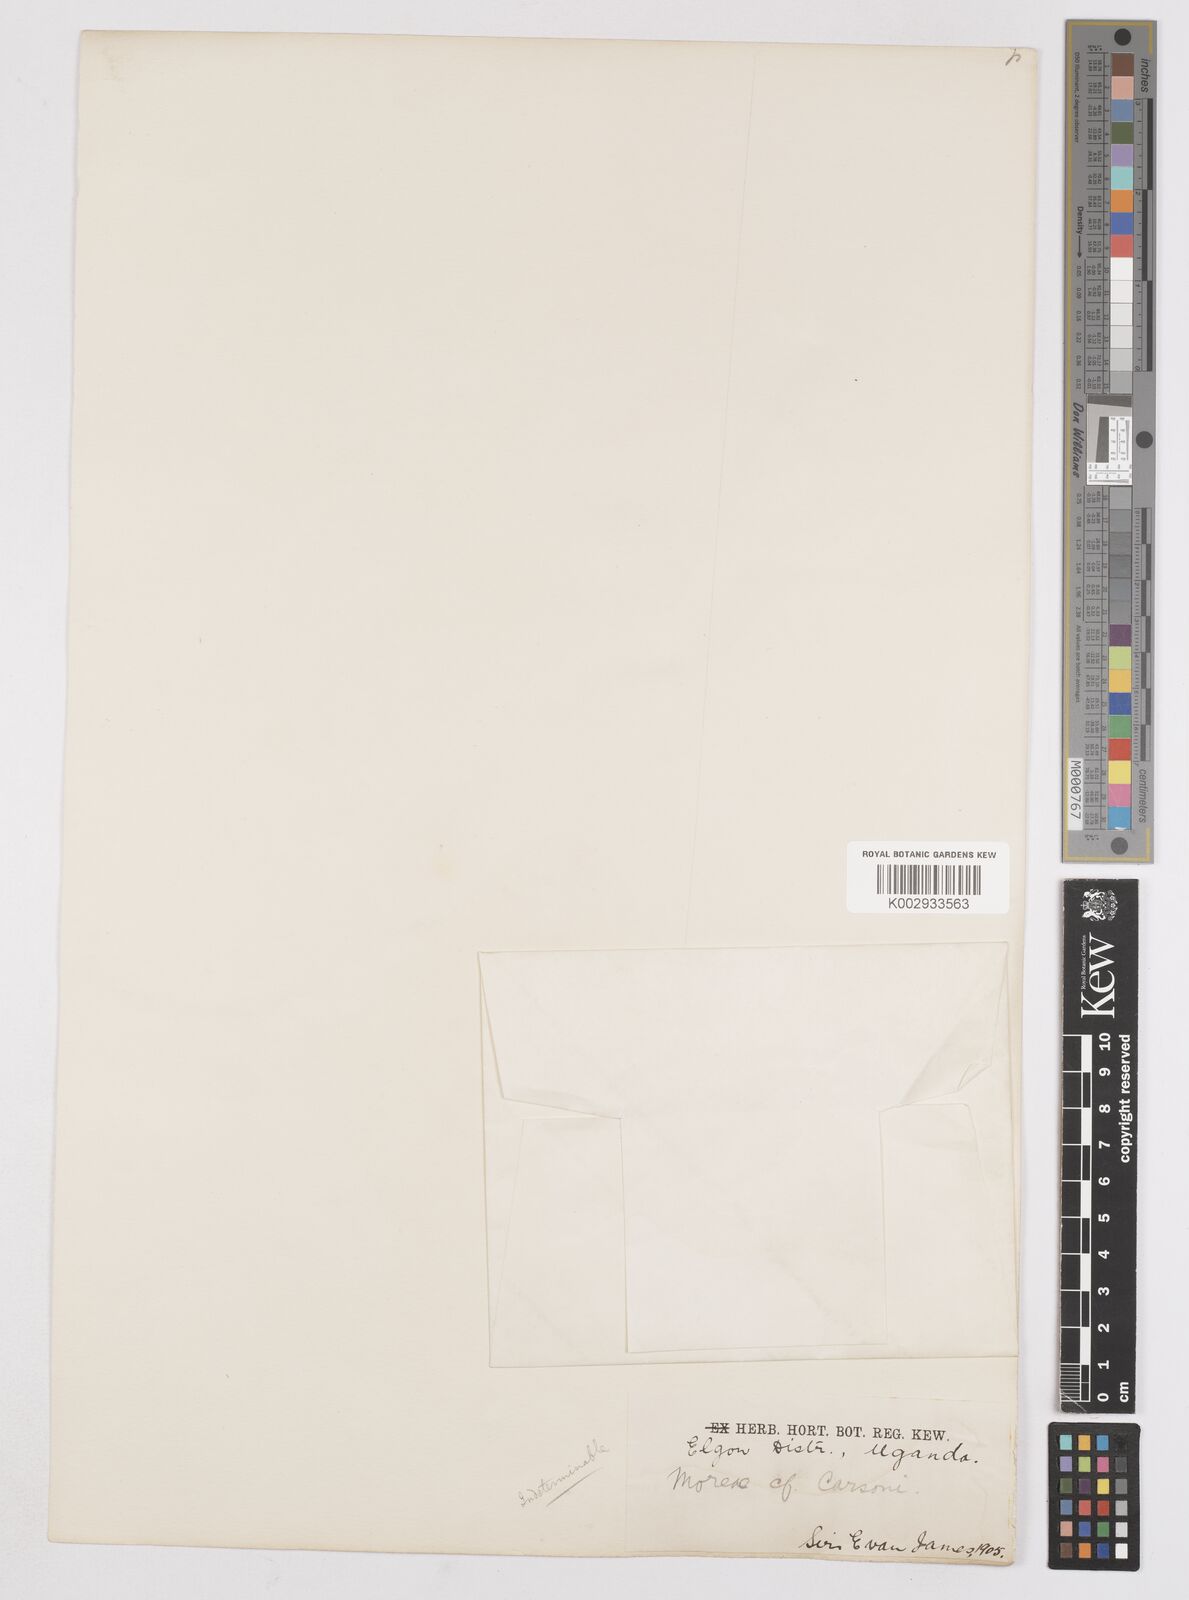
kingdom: Plantae
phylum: Tracheophyta
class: Liliopsida
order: Asparagales
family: Iridaceae
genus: Moraea
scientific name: Moraea
